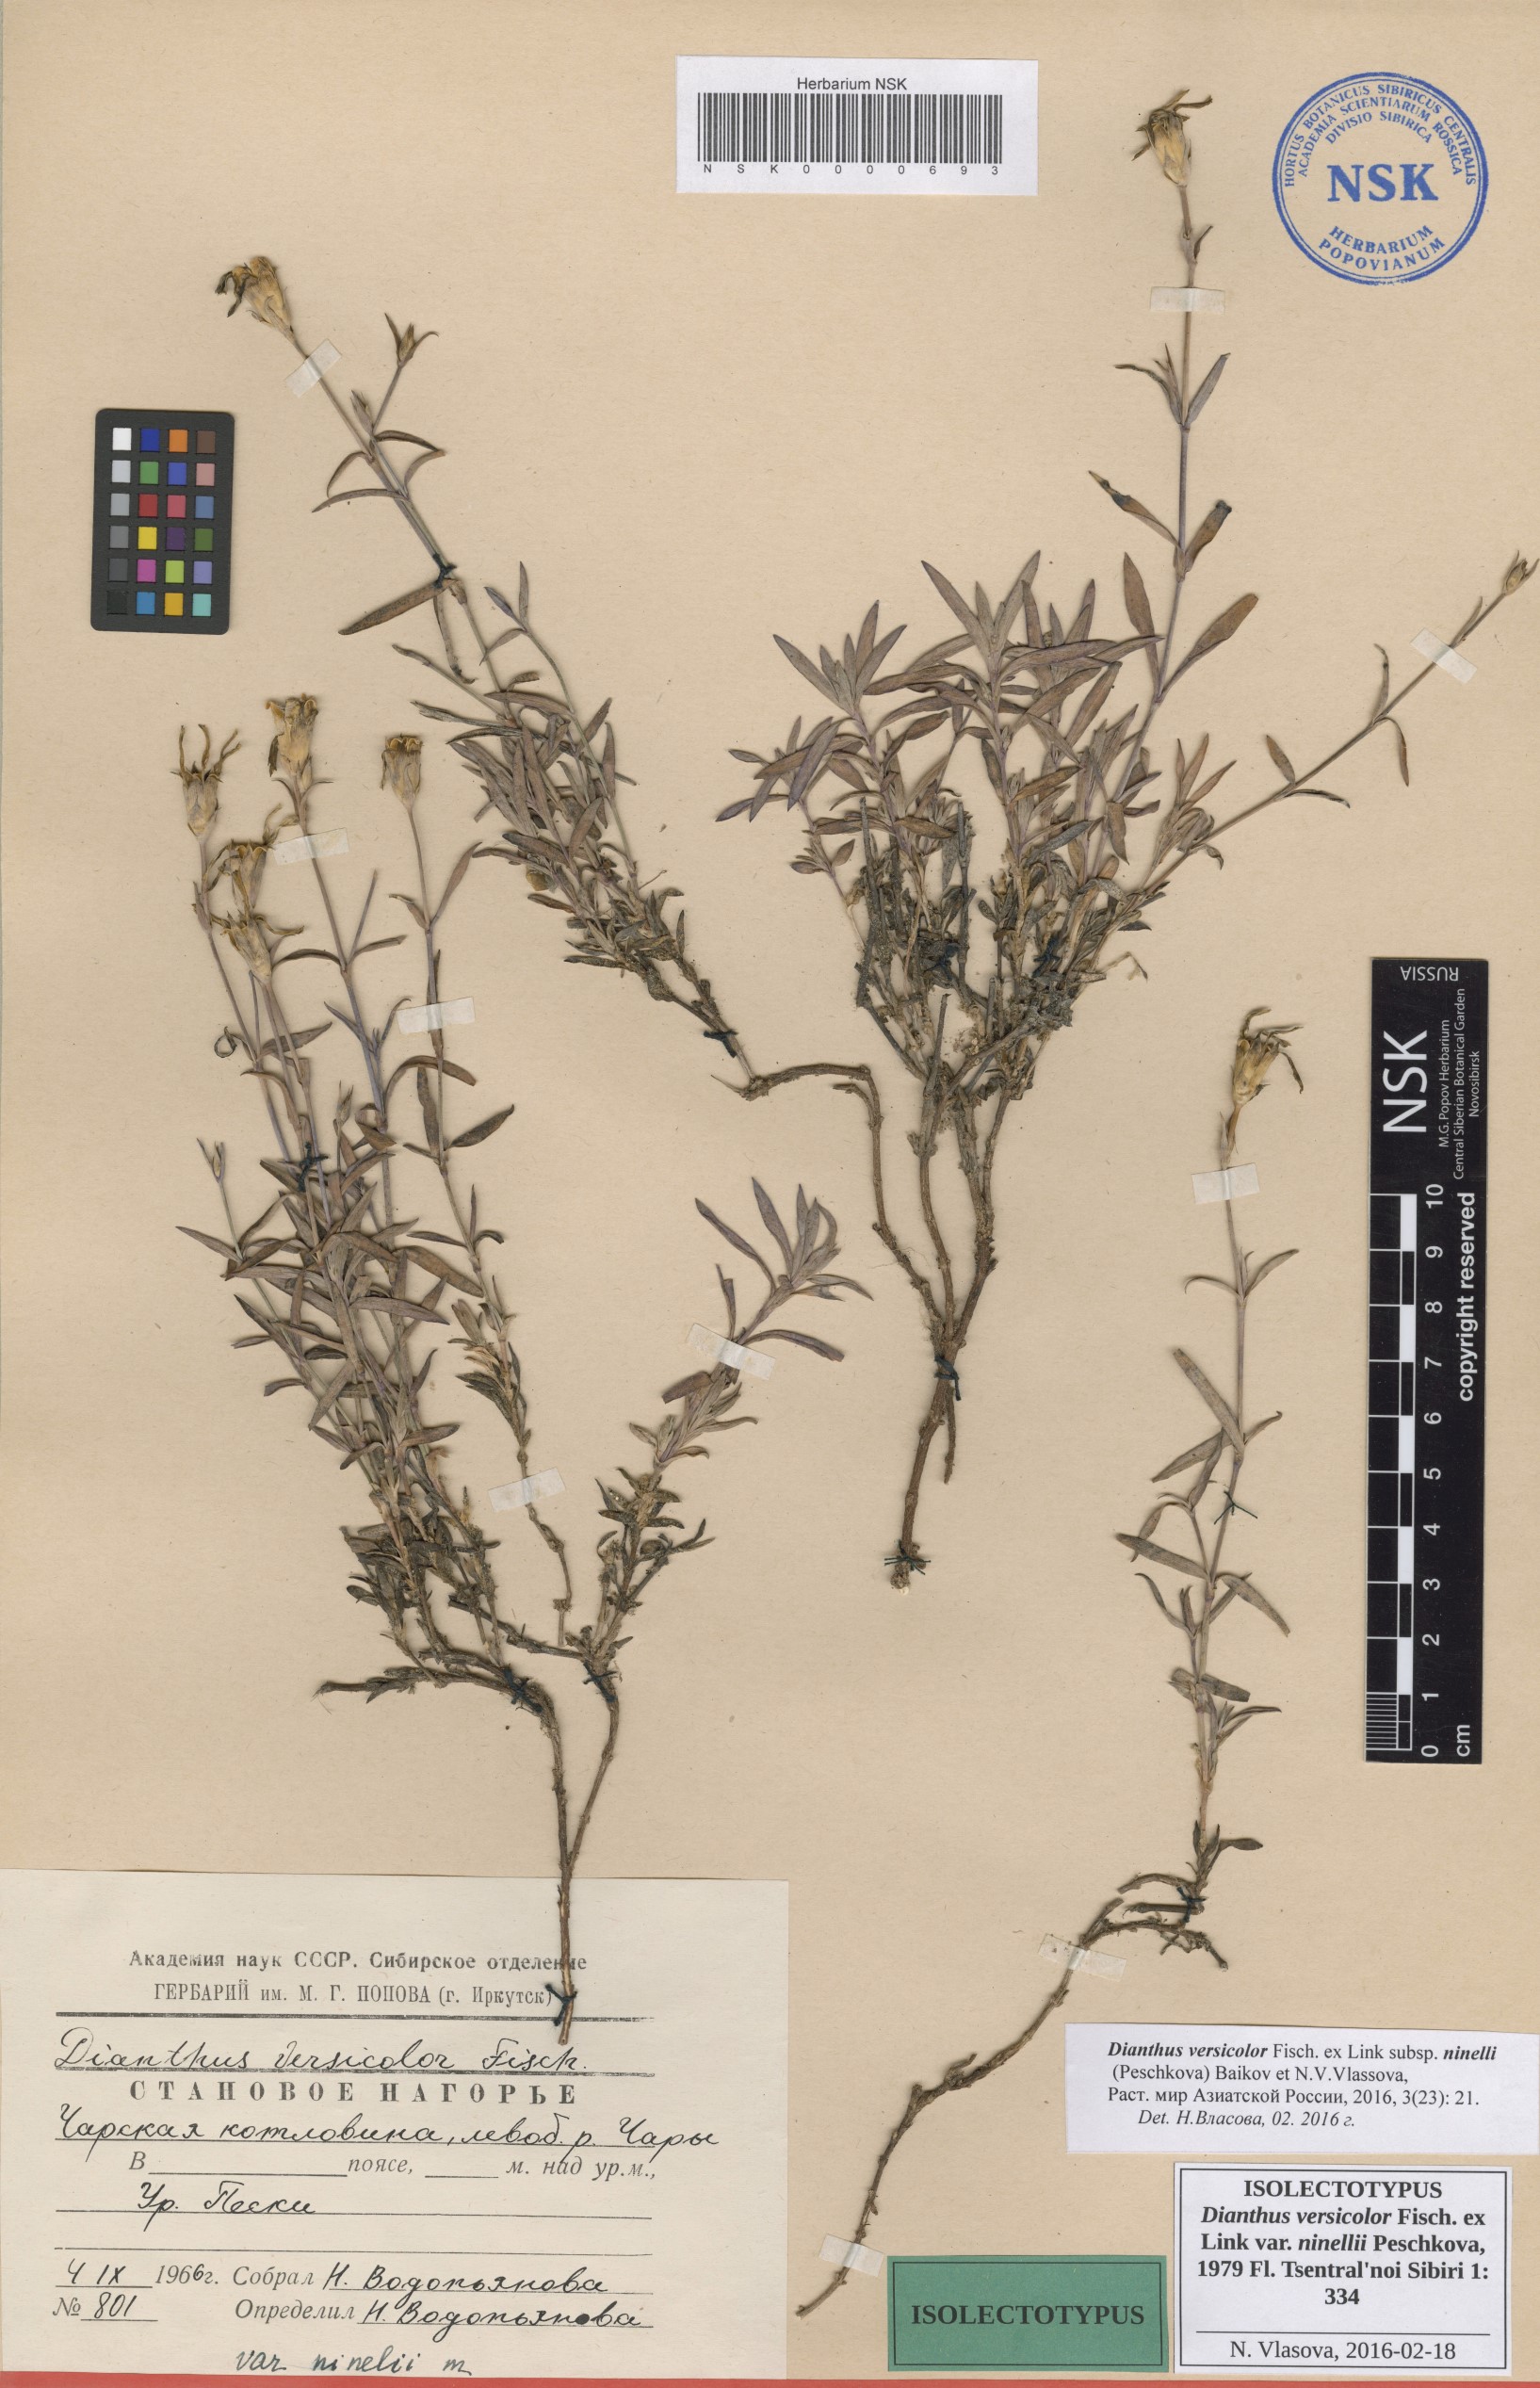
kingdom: Plantae
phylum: Tracheophyta
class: Magnoliopsida
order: Caryophyllales
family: Caryophyllaceae
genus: Dianthus
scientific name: Dianthus chinensis
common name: Rainbow pink
